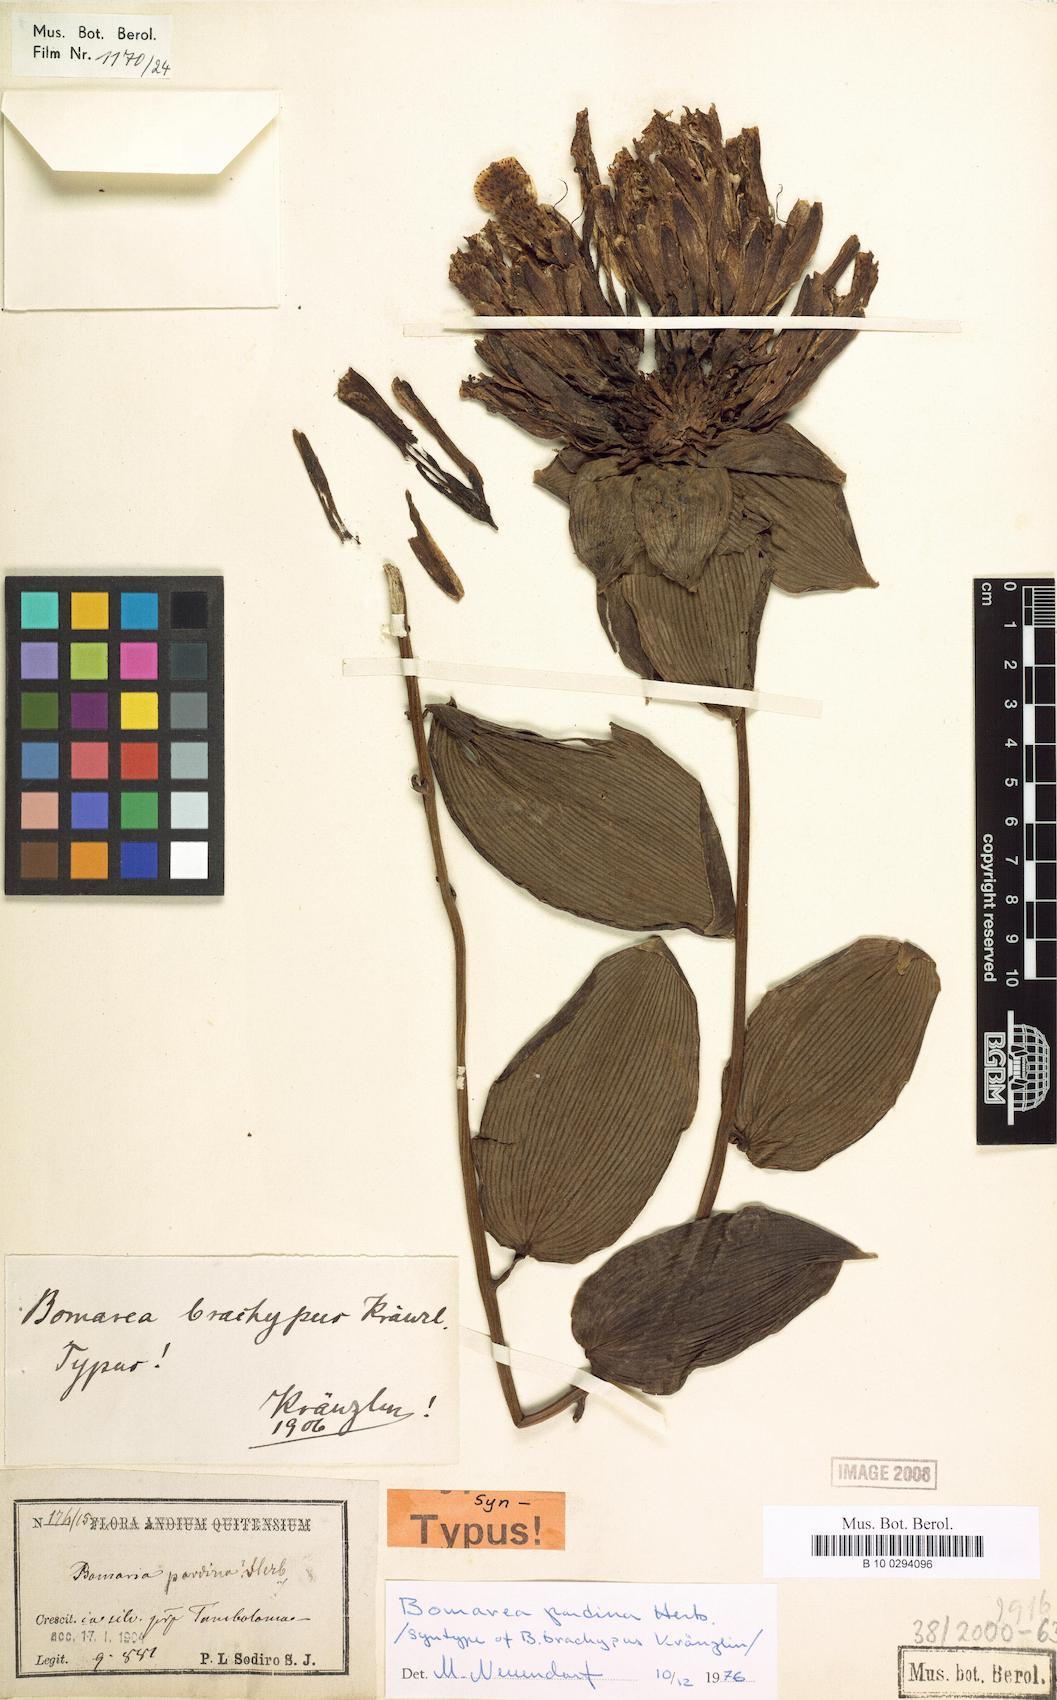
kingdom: Plantae
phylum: Tracheophyta
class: Liliopsida
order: Liliales
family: Alstroemeriaceae
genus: Bomarea
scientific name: Bomarea pardina
